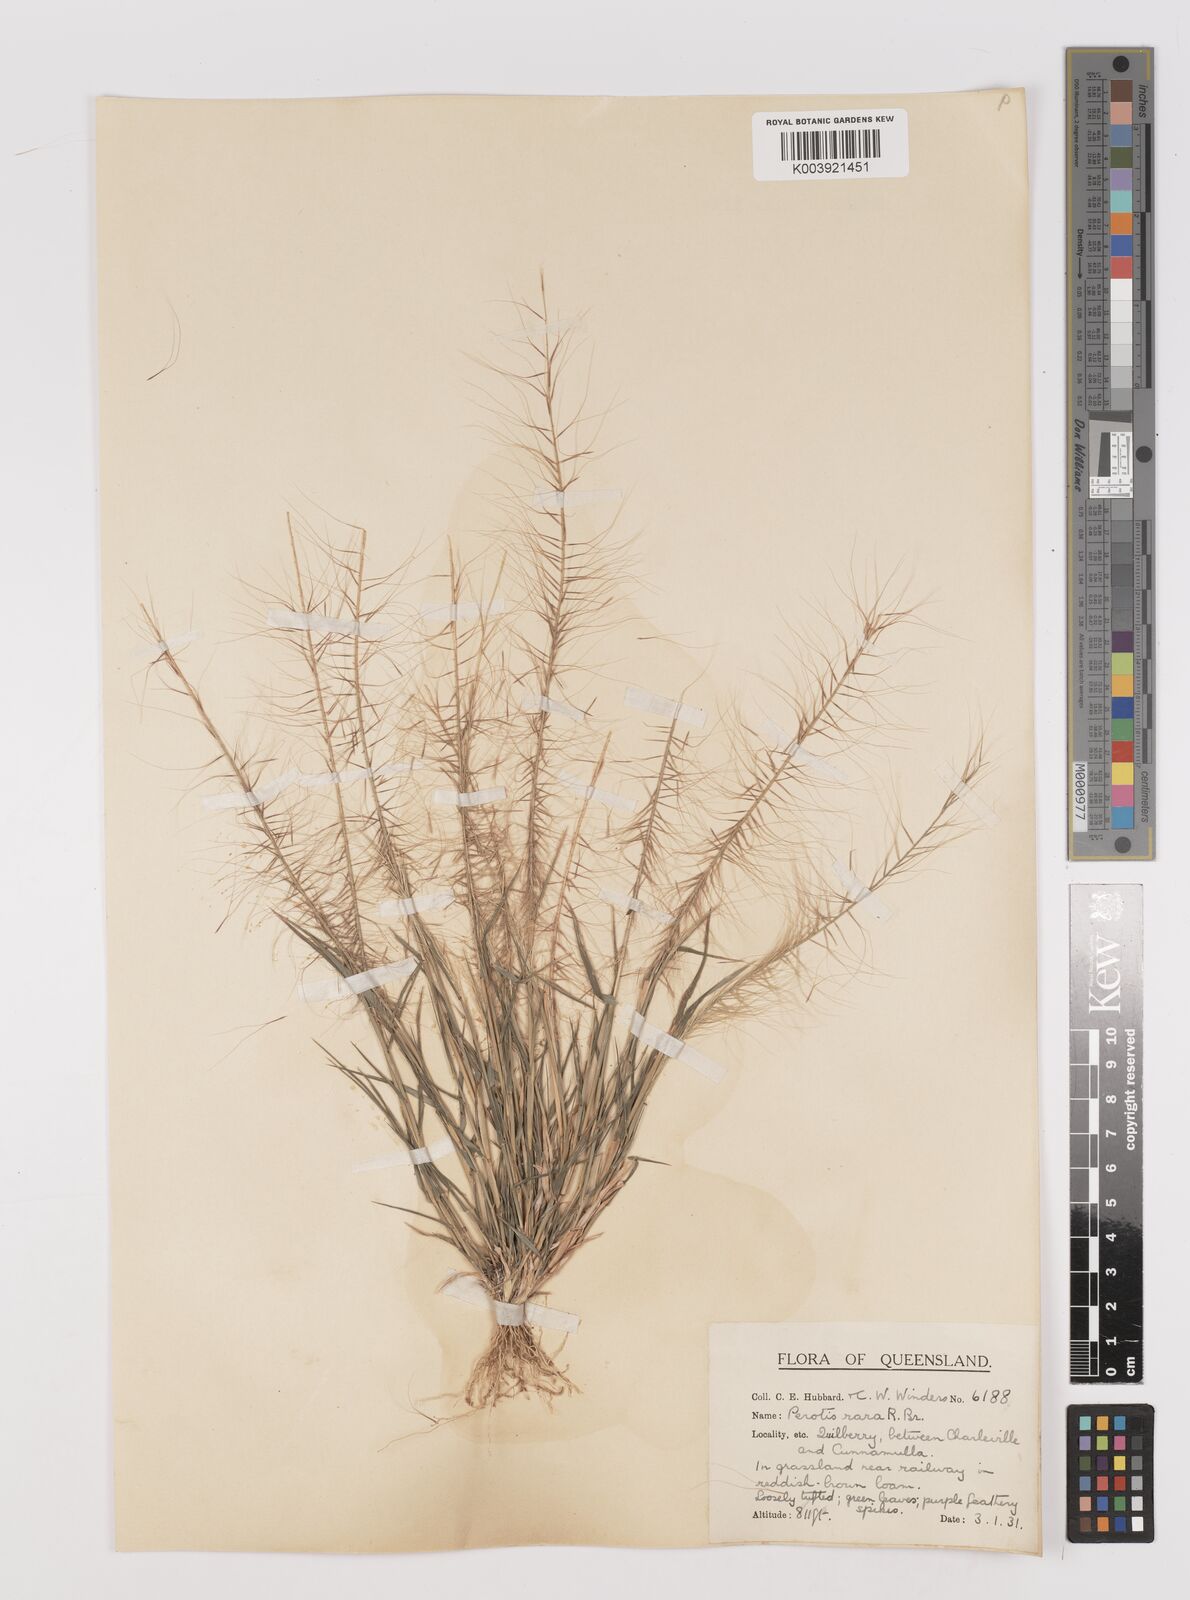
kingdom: Plantae
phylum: Tracheophyta
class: Liliopsida
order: Poales
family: Poaceae
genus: Perotis
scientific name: Perotis rara
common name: Comet grass
